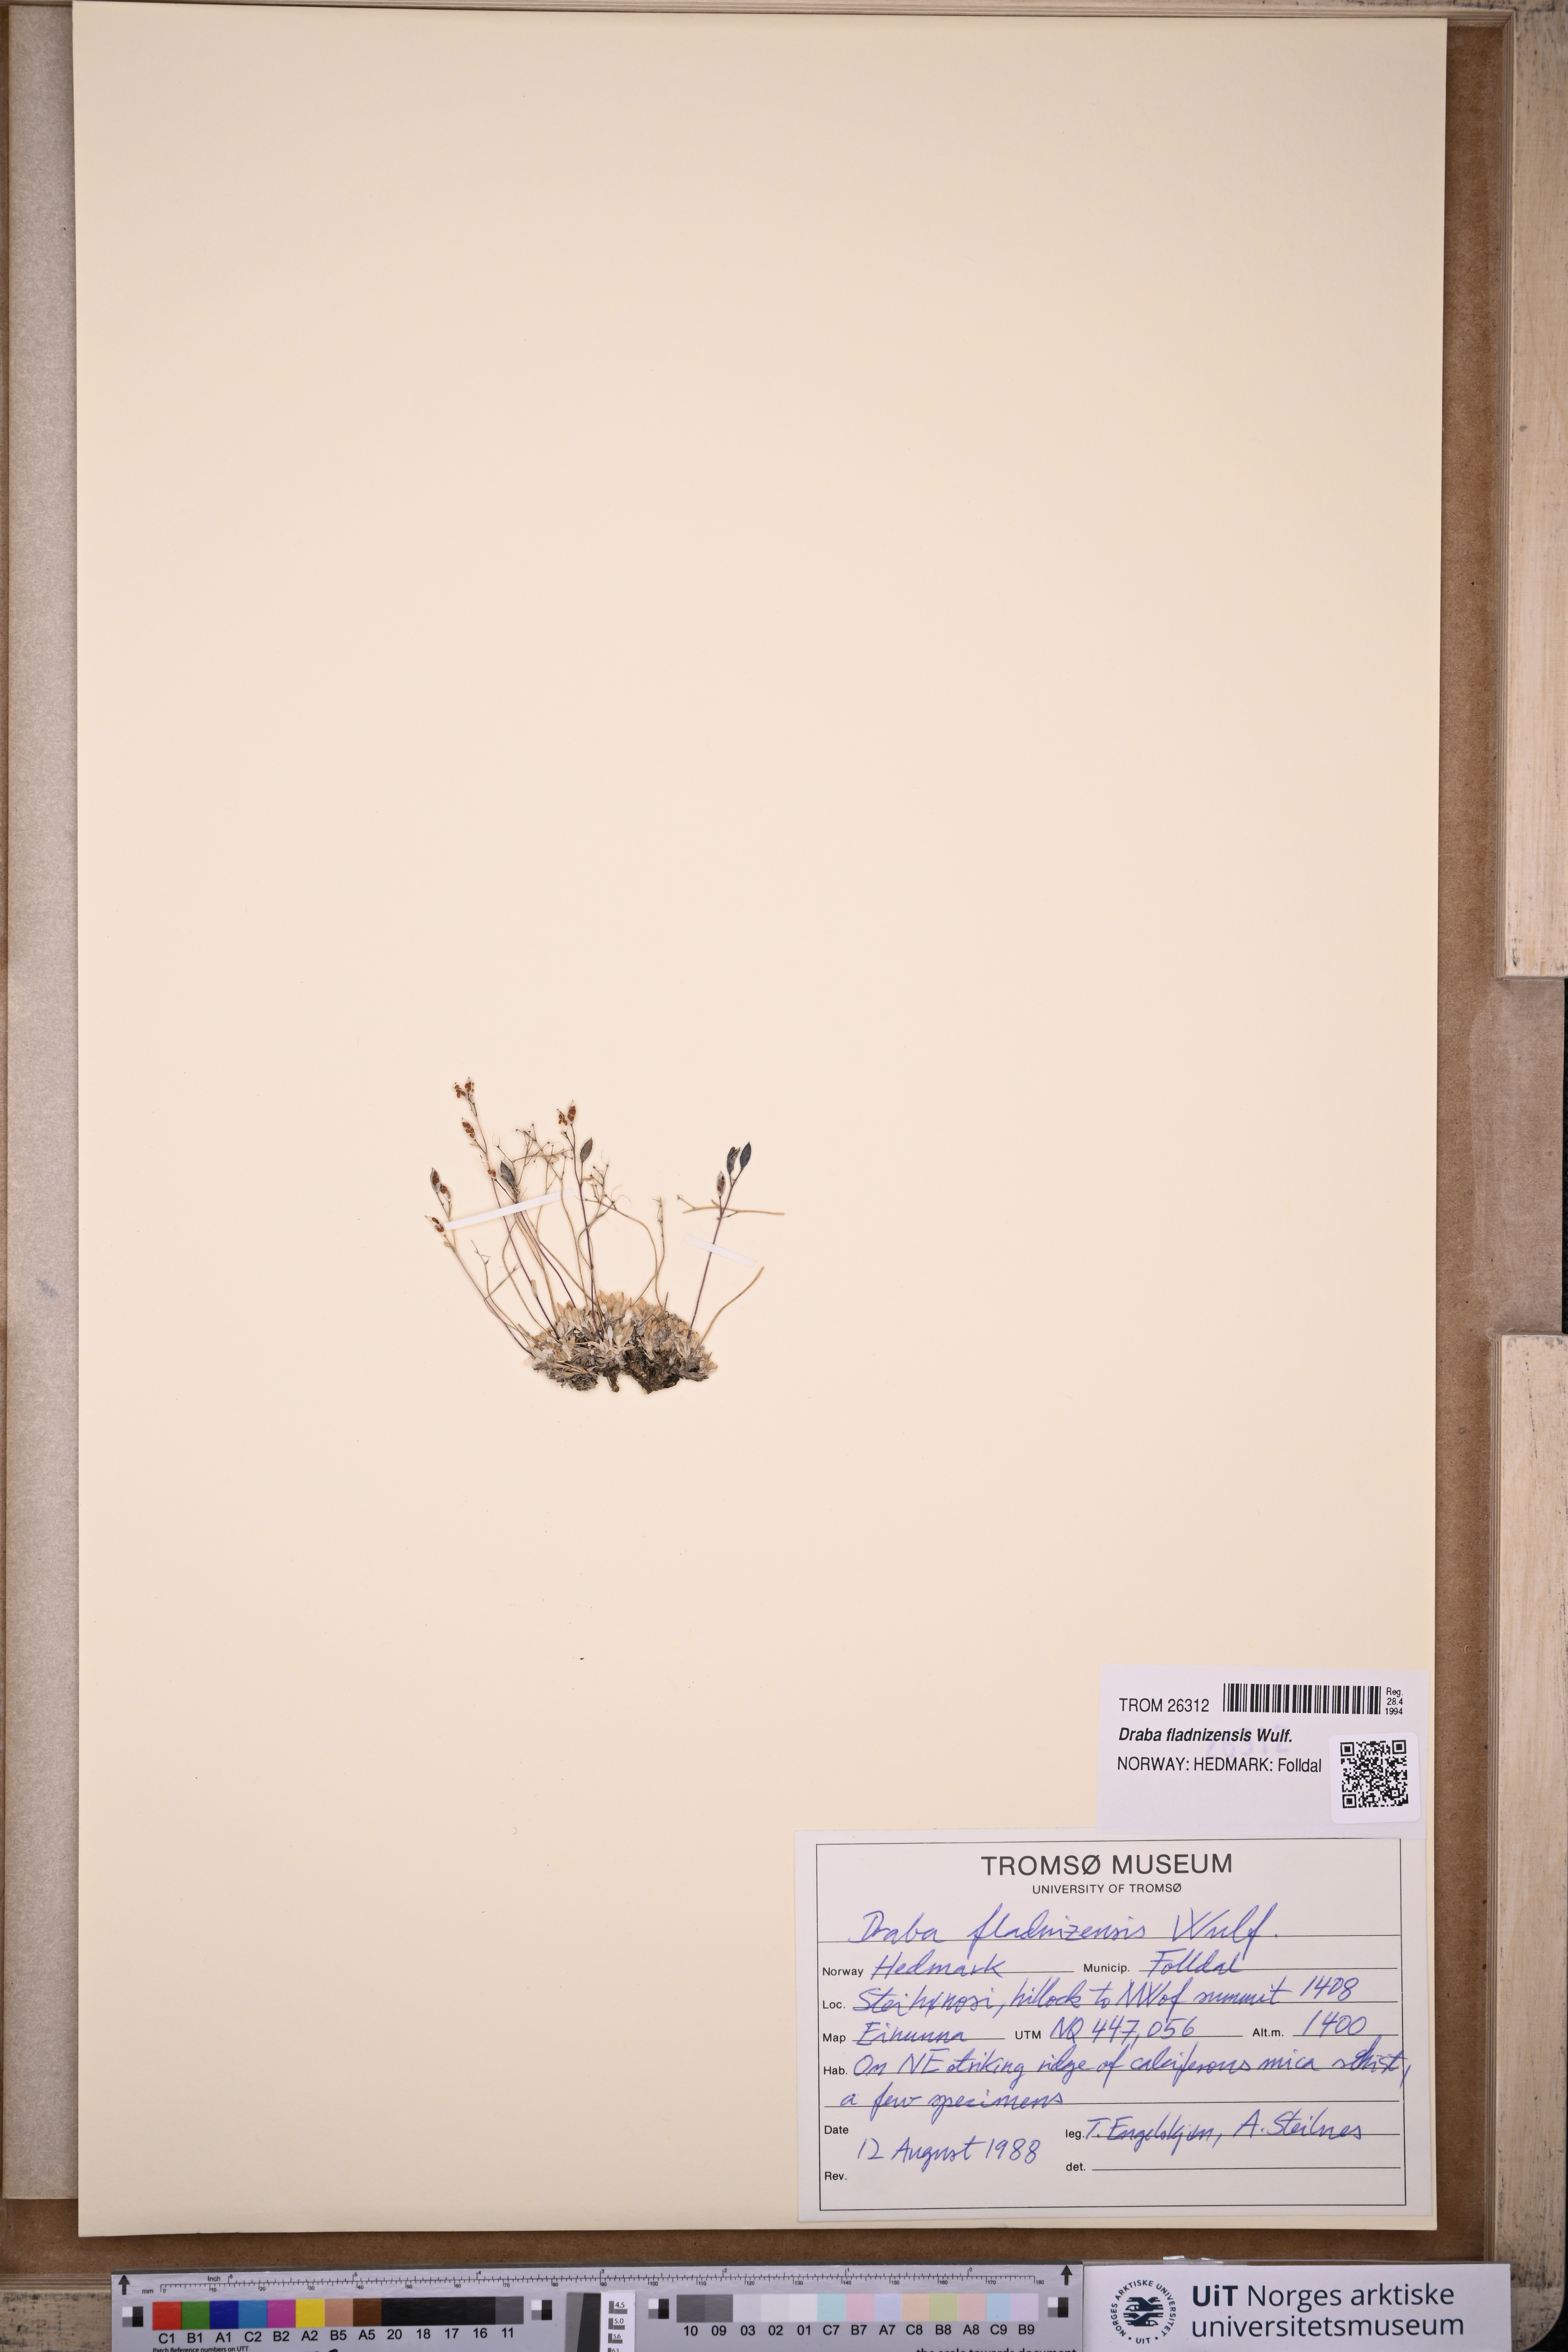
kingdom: Plantae
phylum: Tracheophyta
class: Magnoliopsida
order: Brassicales
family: Brassicaceae
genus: Draba
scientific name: Draba fladnizensis
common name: Austrian draba
